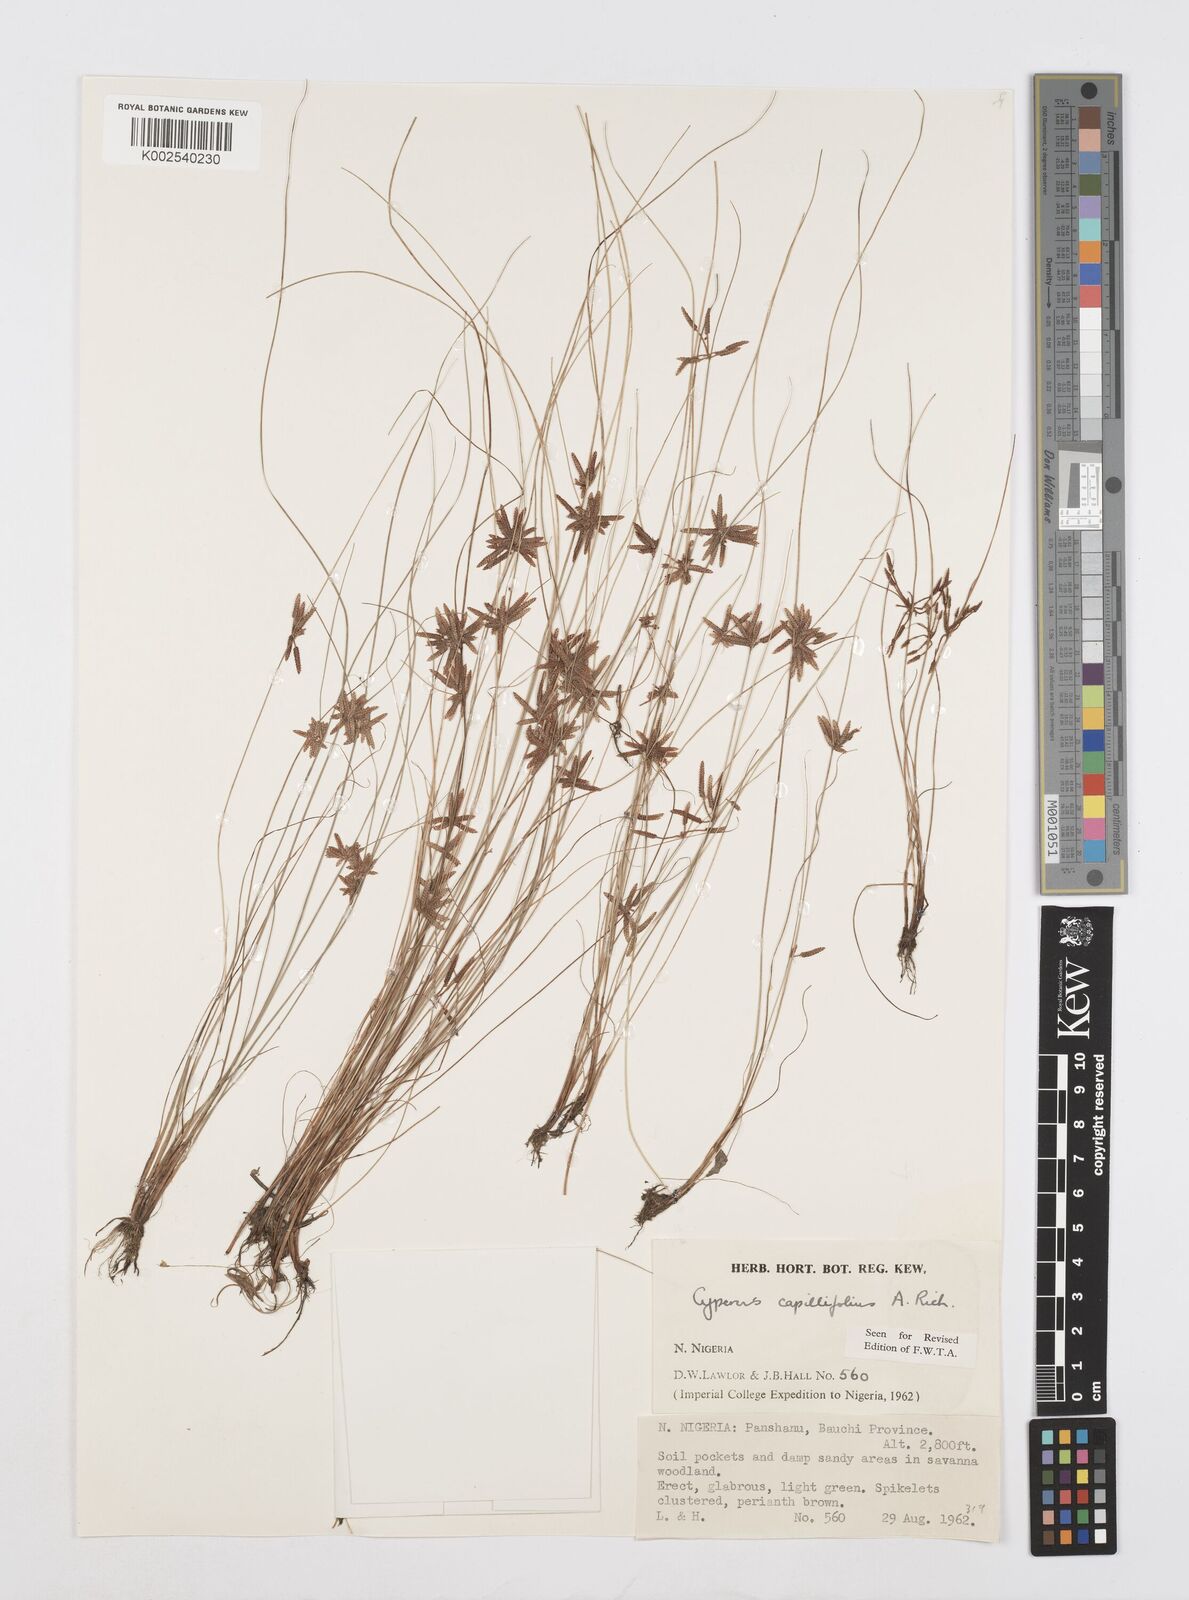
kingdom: Plantae
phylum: Tracheophyta
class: Liliopsida
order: Poales
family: Cyperaceae
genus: Cyperus
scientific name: Cyperus capillifolius
